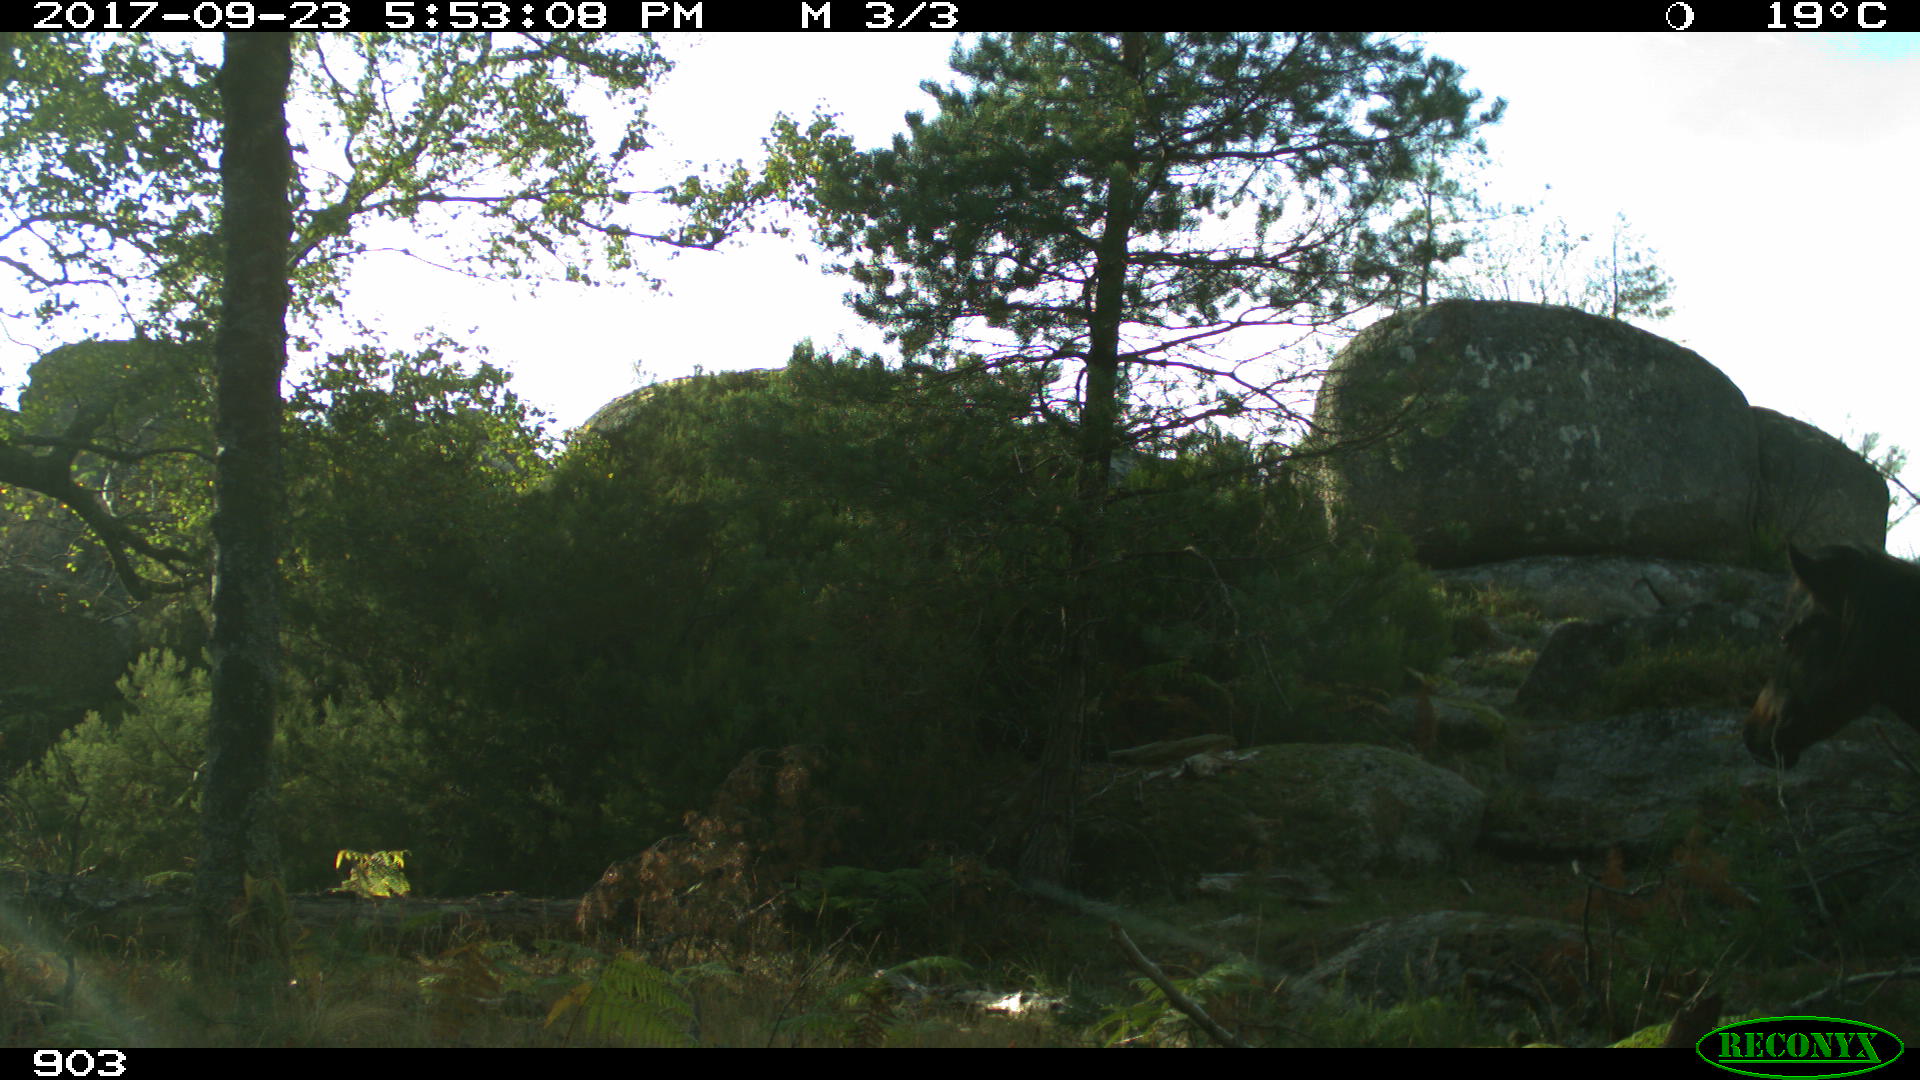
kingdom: Animalia
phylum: Chordata
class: Mammalia
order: Perissodactyla
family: Equidae
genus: Equus
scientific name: Equus caballus
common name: Horse
